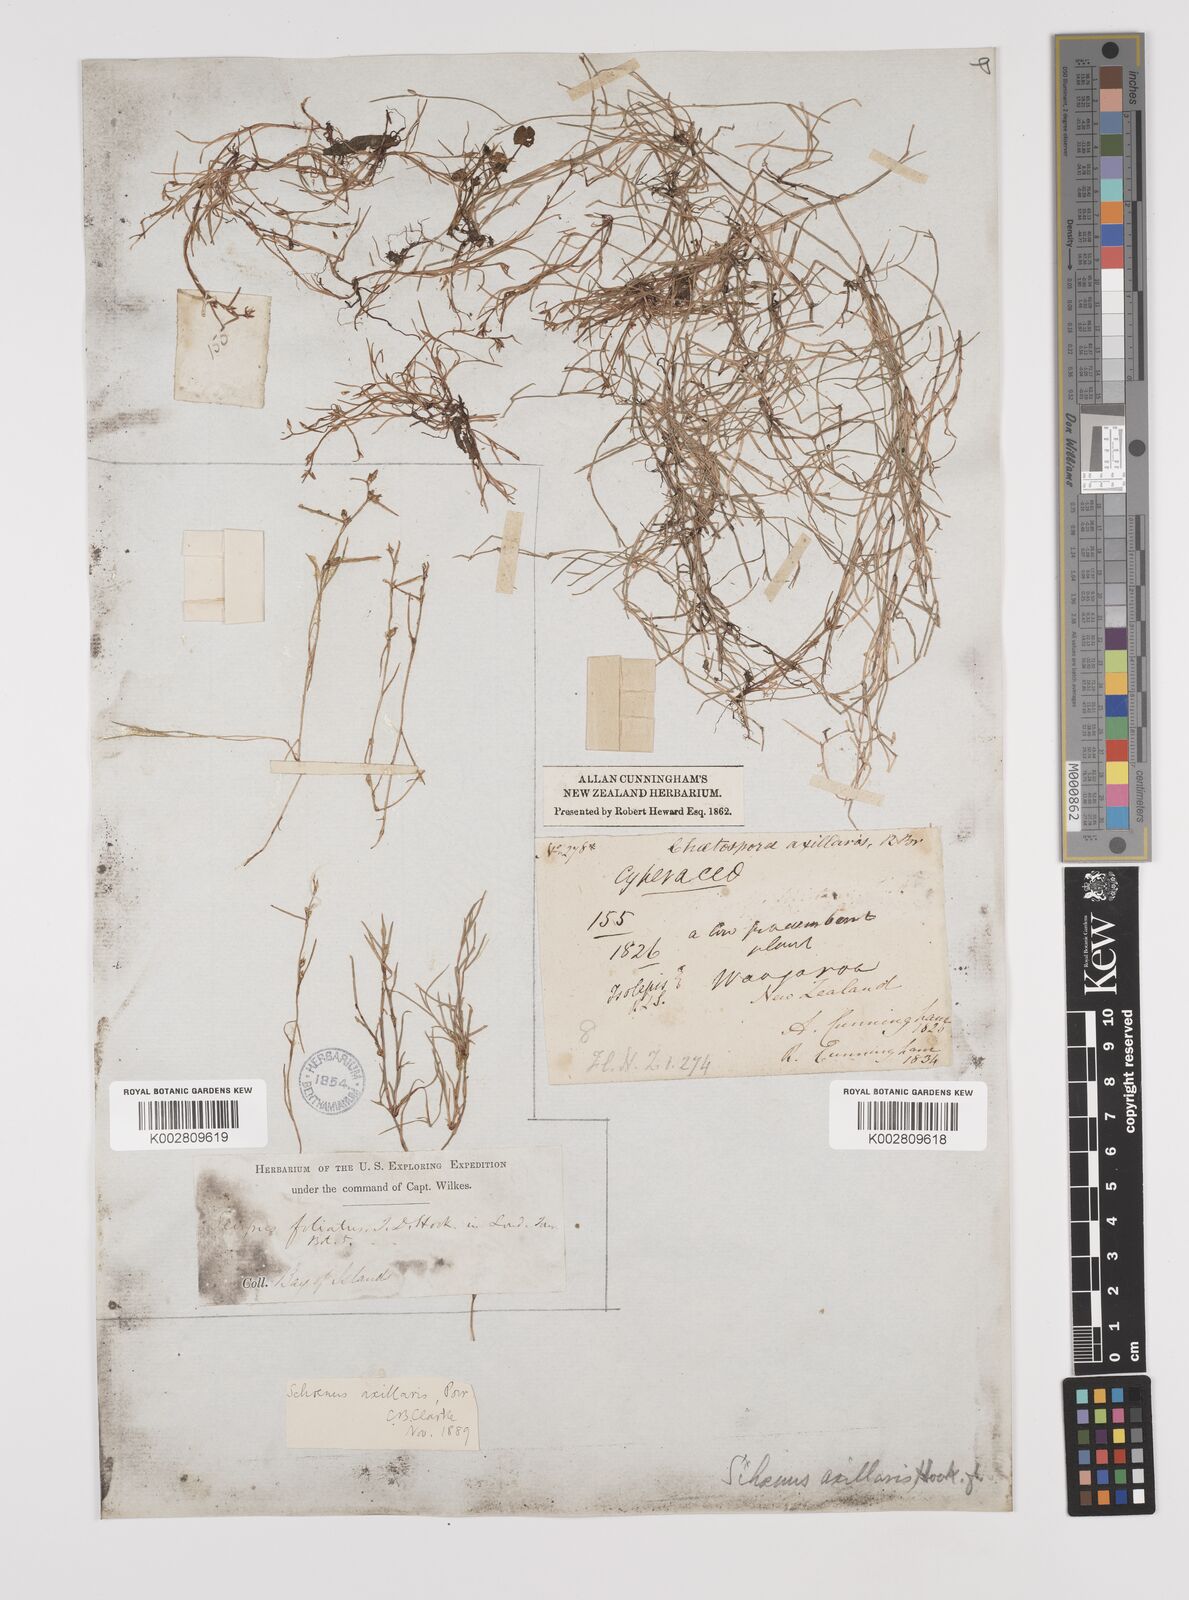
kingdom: Plantae
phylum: Tracheophyta
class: Liliopsida
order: Poales
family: Cyperaceae
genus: Schoenus
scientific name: Schoenus maschalinus
